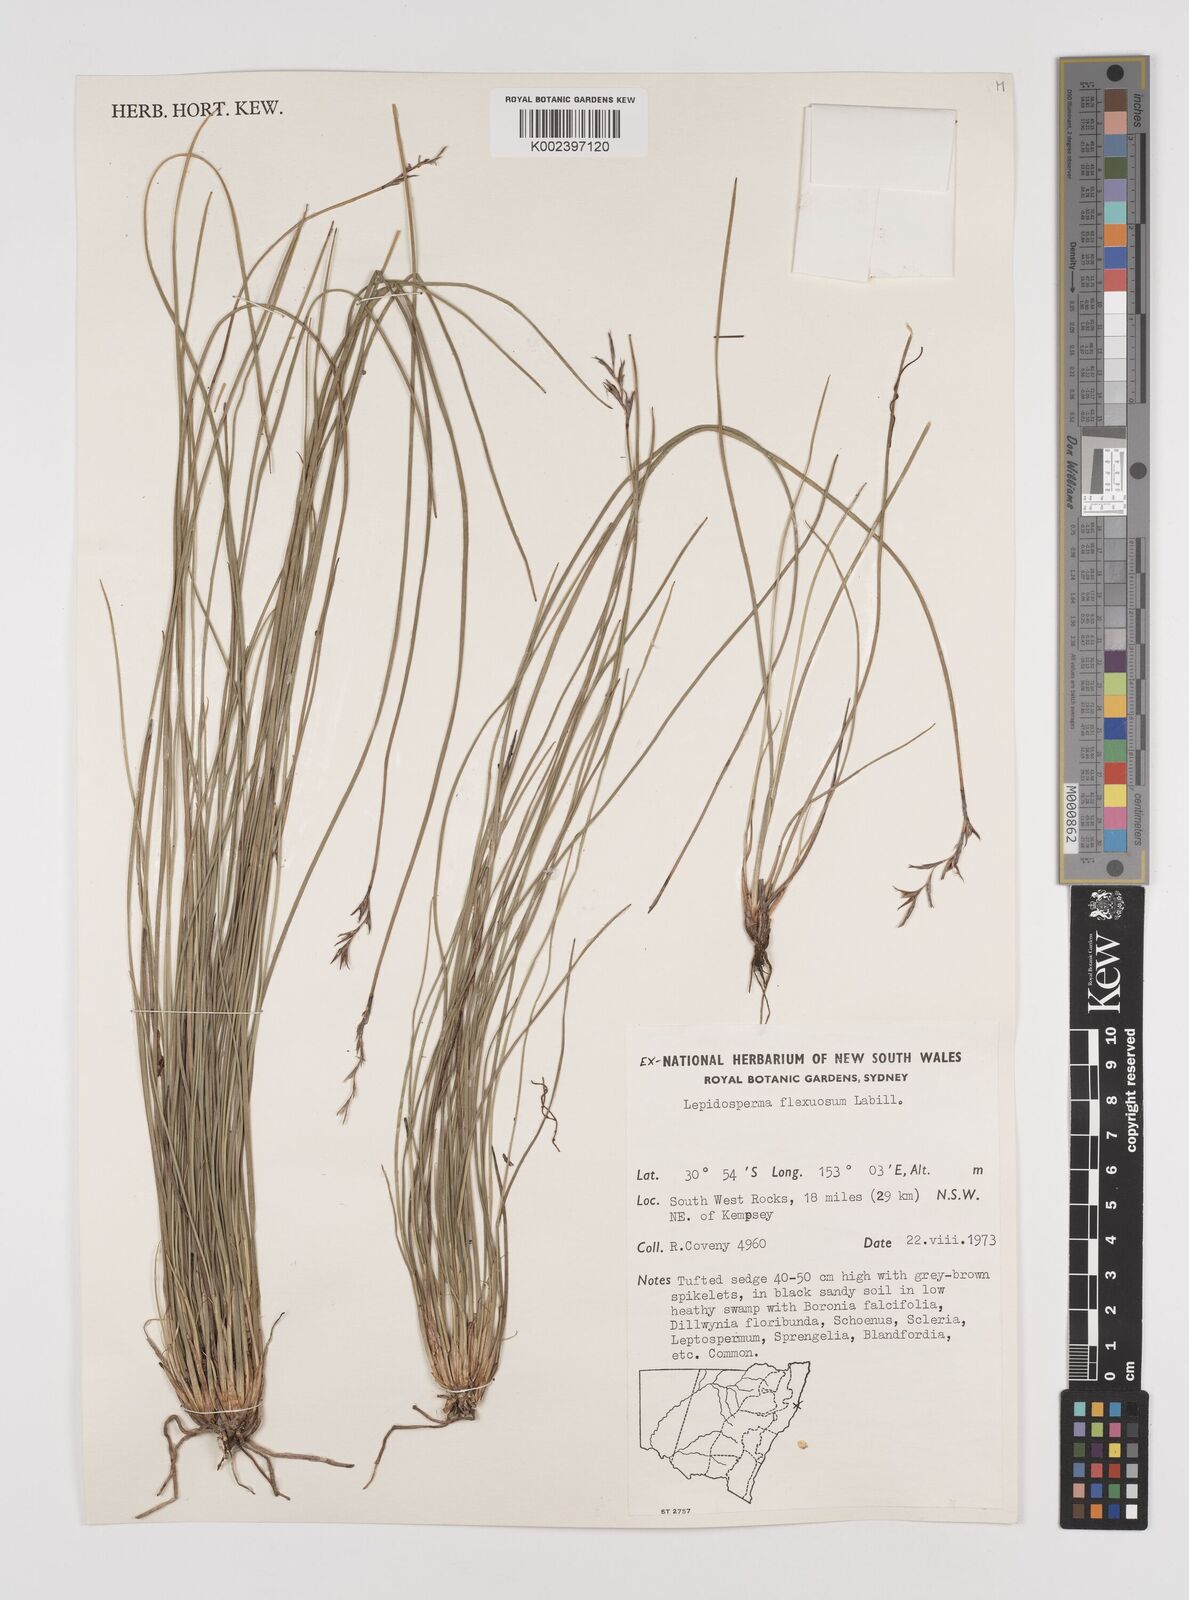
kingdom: Plantae
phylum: Tracheophyta
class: Liliopsida
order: Poales
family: Cyperaceae
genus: Lepidosperma
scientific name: Lepidosperma flexuosum
